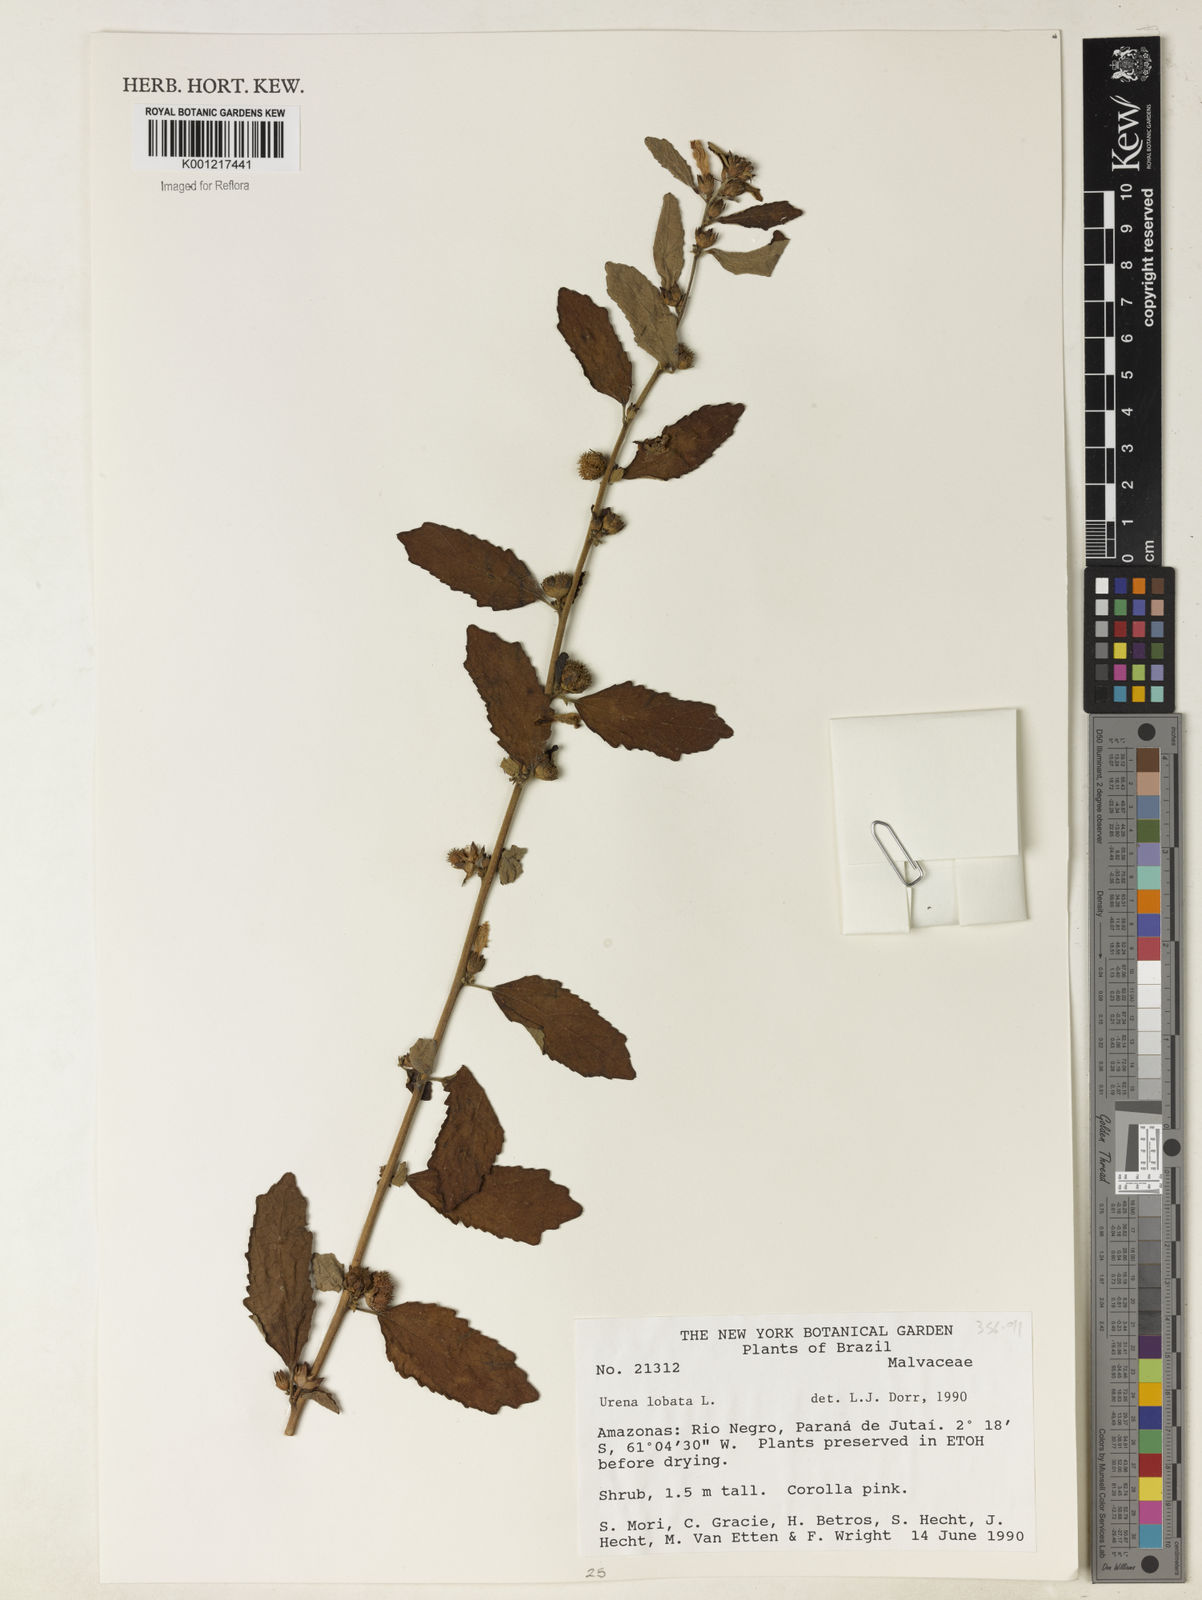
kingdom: Plantae
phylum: Tracheophyta
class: Magnoliopsida
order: Malvales
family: Malvaceae
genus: Urena
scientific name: Urena lobata
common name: Caesarweed
